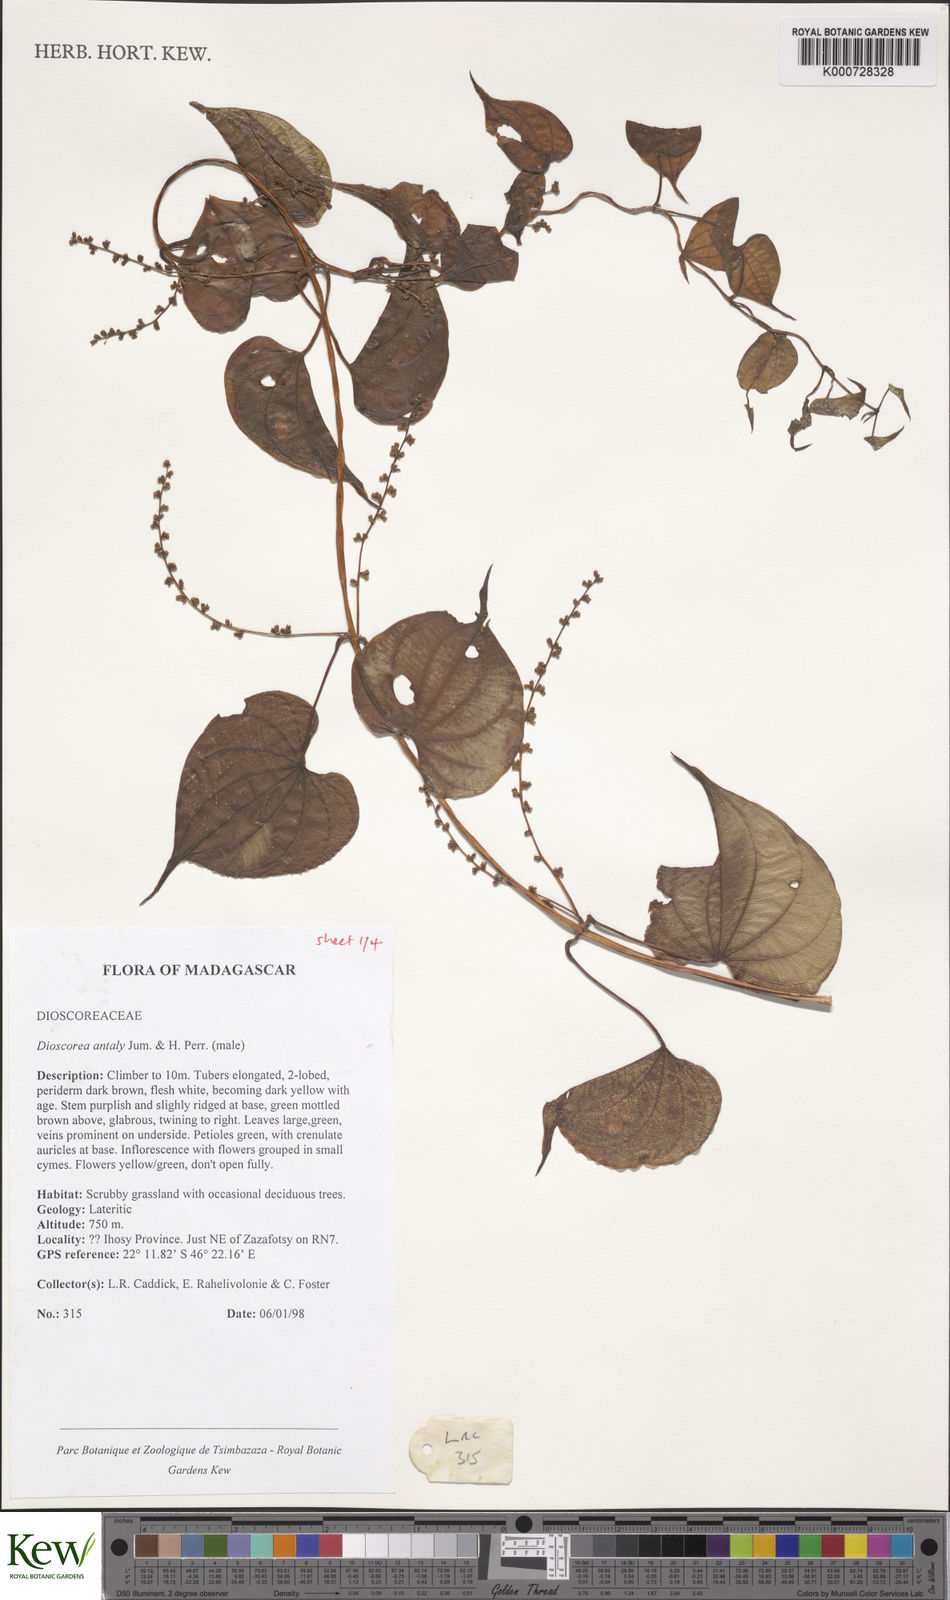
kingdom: Plantae
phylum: Tracheophyta
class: Liliopsida
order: Dioscoreales
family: Dioscoreaceae
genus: Dioscorea
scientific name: Dioscorea antaly
